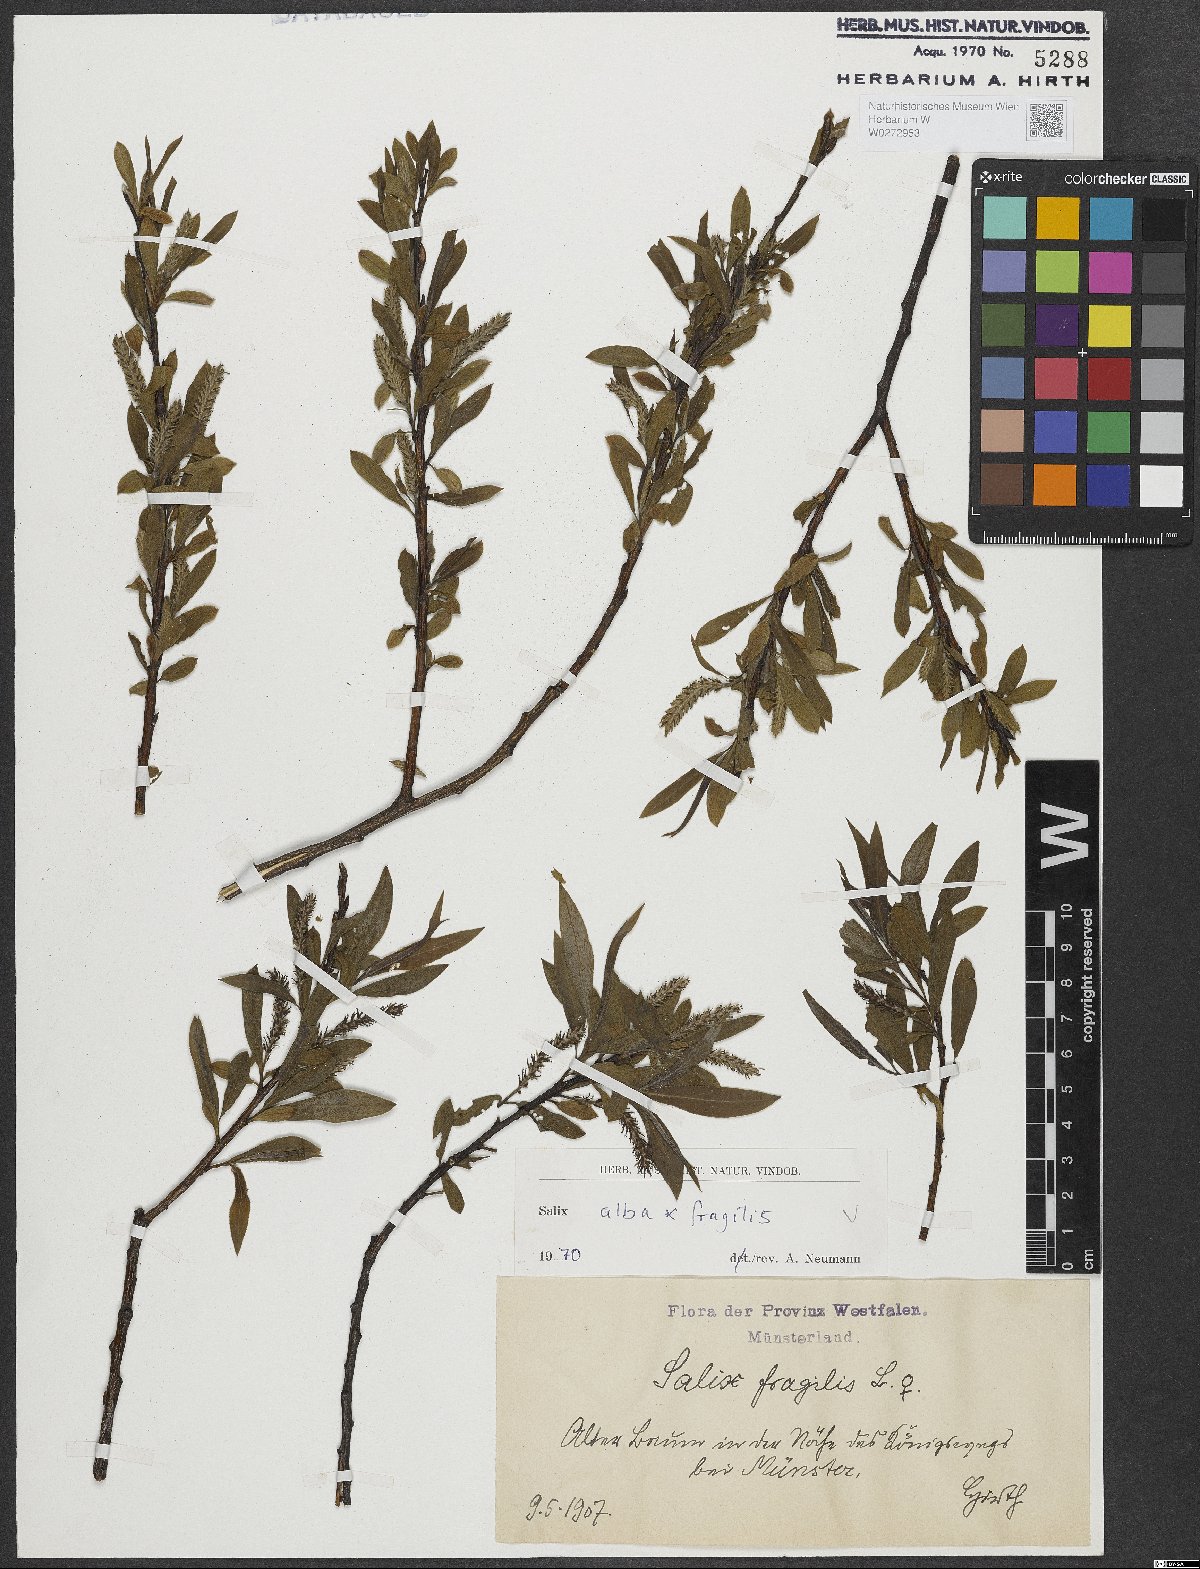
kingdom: Plantae
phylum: Tracheophyta
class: Magnoliopsida
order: Malpighiales
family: Salicaceae
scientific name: Salicaceae
